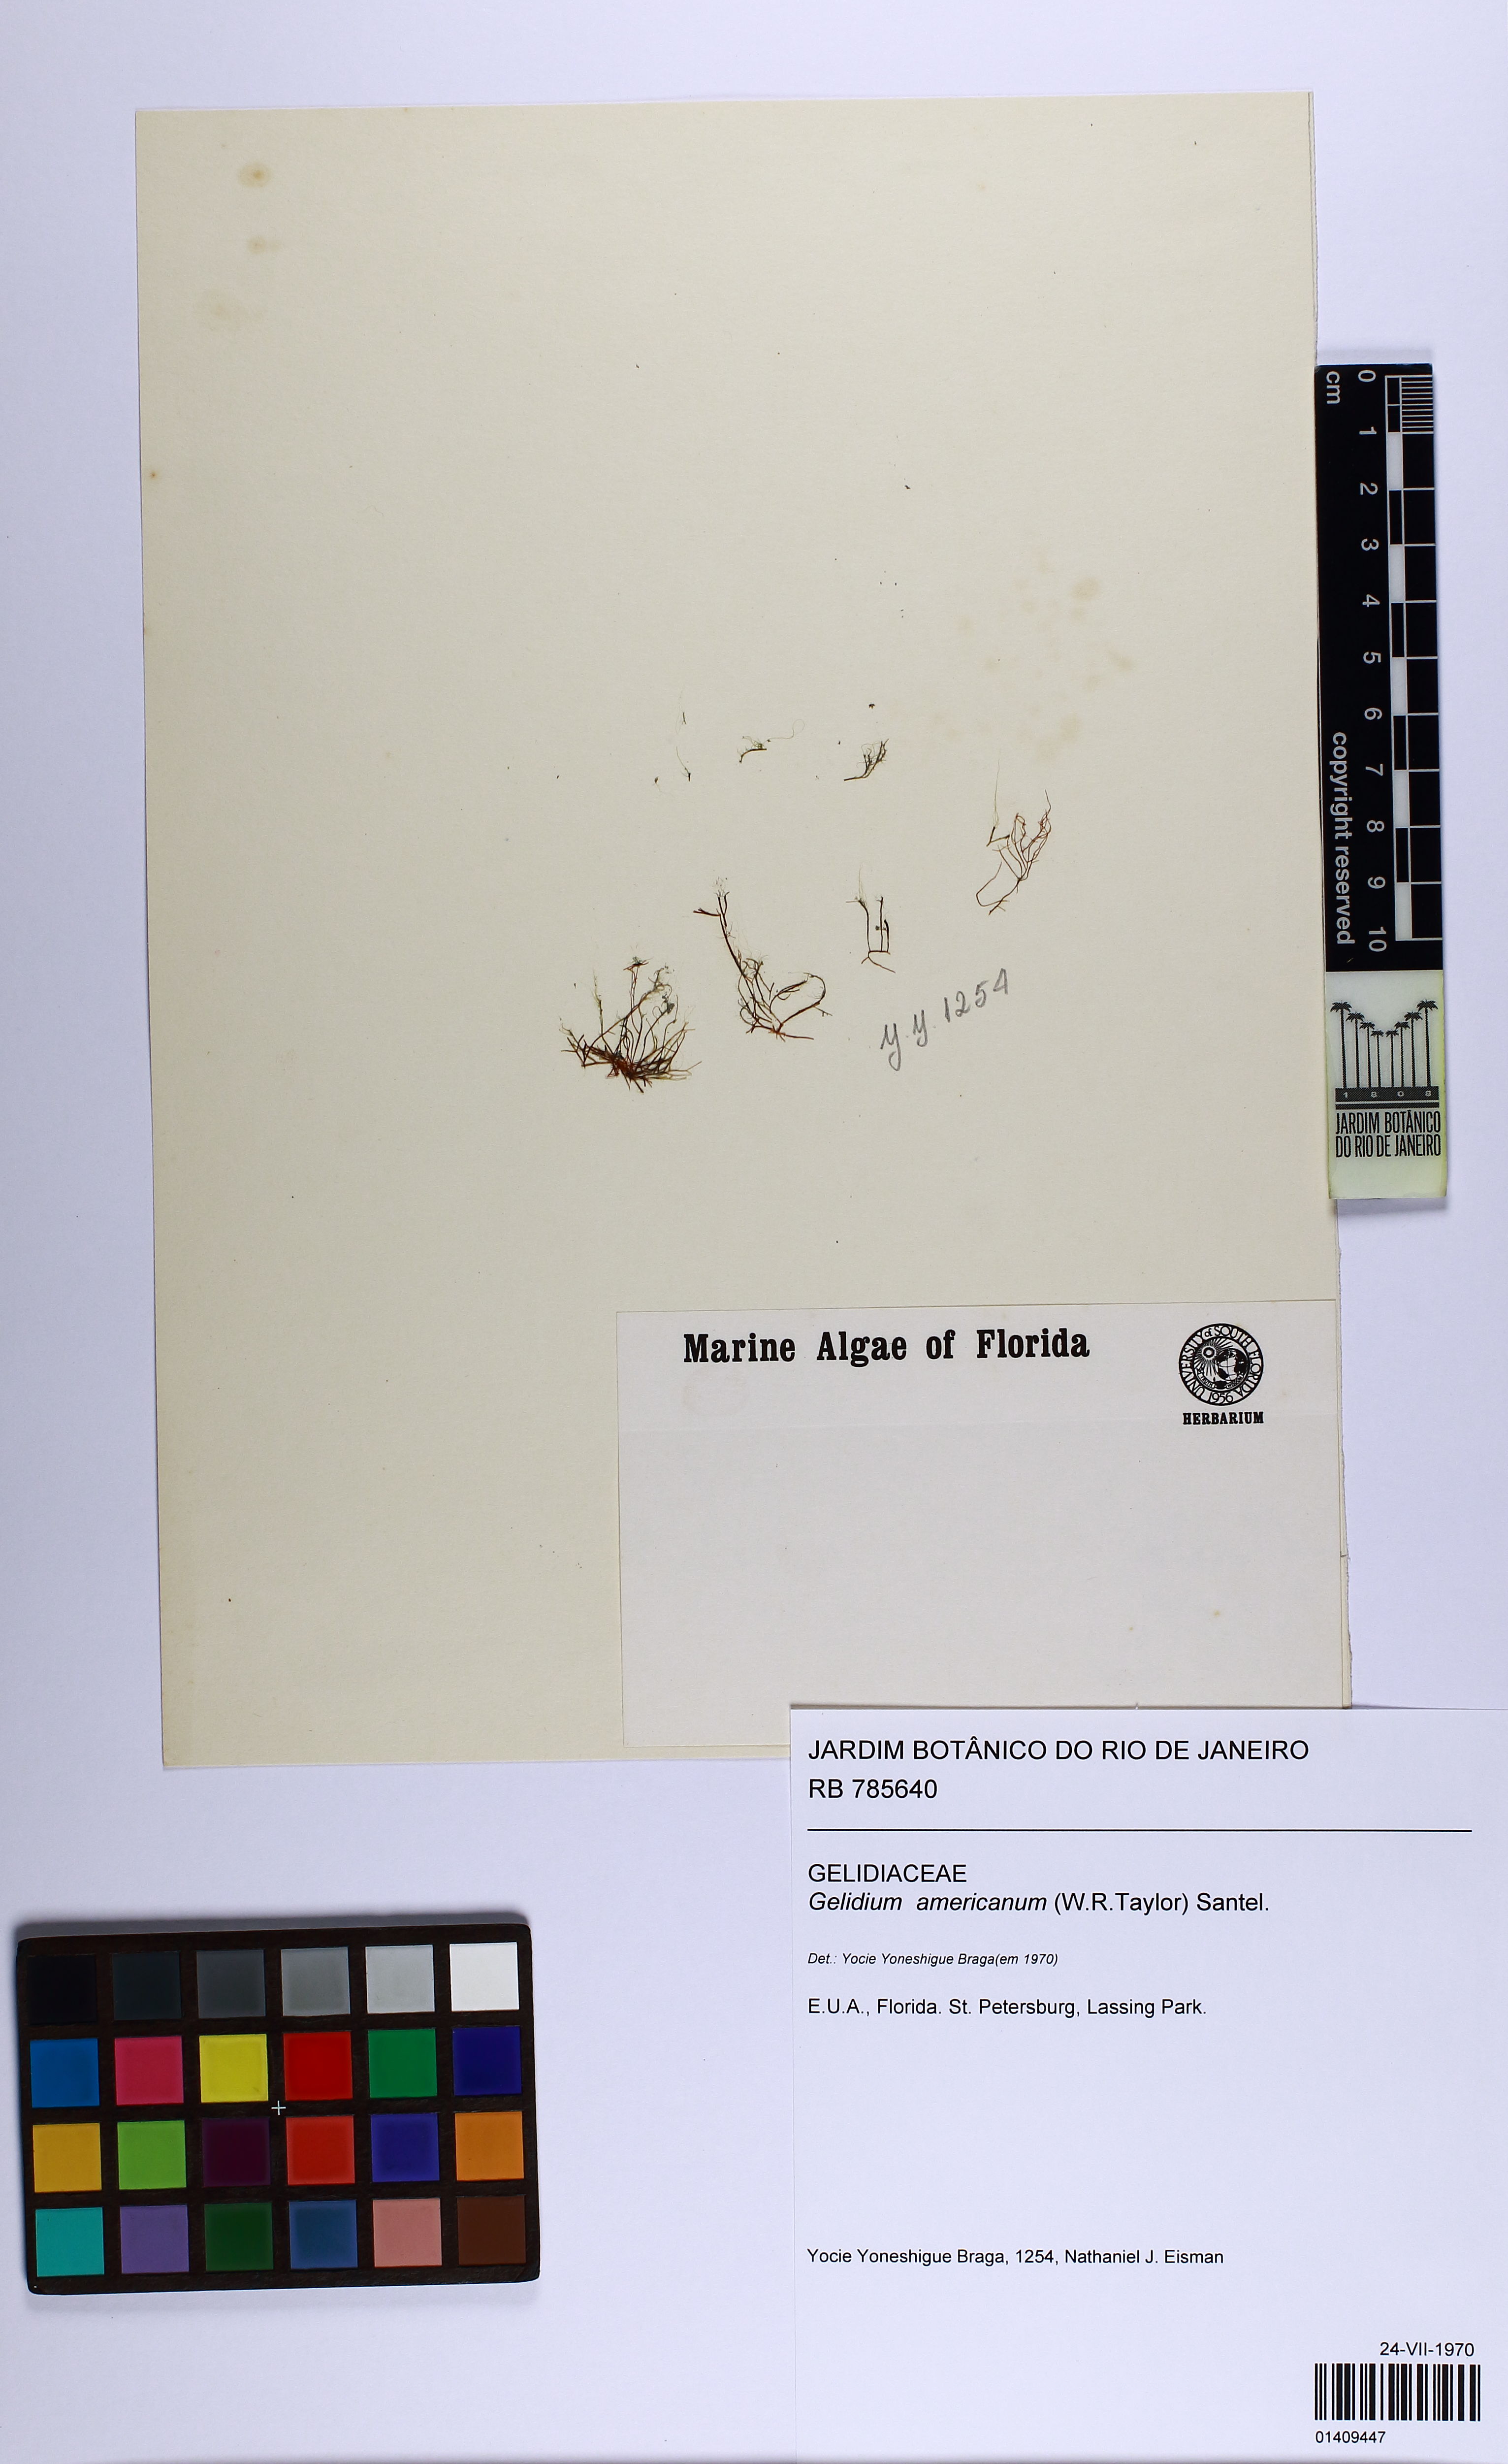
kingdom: Plantae
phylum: Rhodophyta
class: Florideophyceae
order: Gelidiales
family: Gelidiaceae
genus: Gelidium
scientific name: Gelidium americanum
